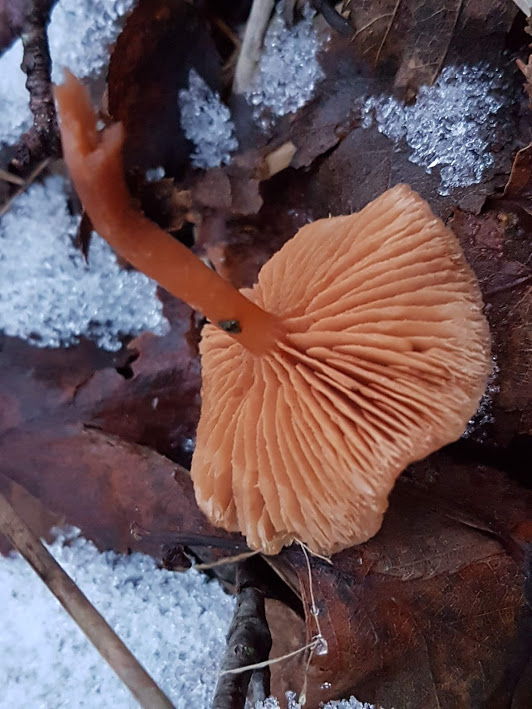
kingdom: Fungi
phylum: Basidiomycota
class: Agaricomycetes
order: Agaricales
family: Tubariaceae
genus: Tubaria
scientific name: Tubaria furfuracea
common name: kliddet fnughat
